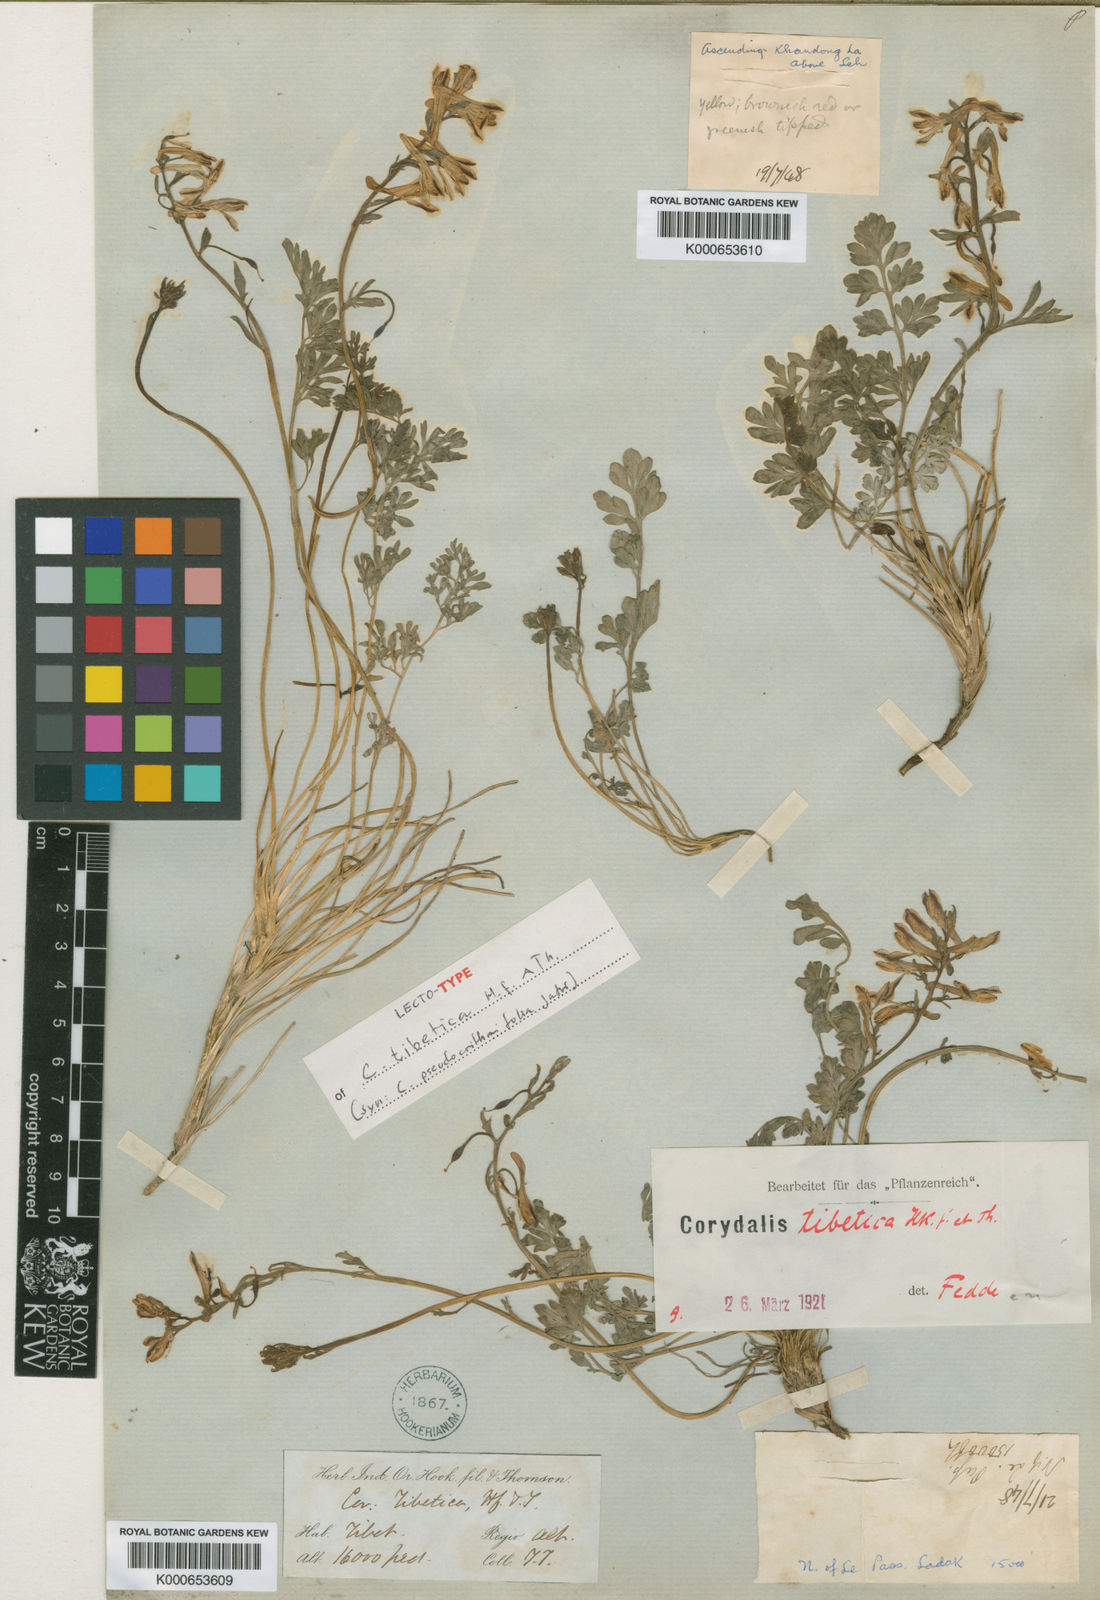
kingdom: Plantae
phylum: Tracheophyta
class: Magnoliopsida
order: Ranunculales
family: Papaveraceae
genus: Corydalis
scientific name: Corydalis tibetica
